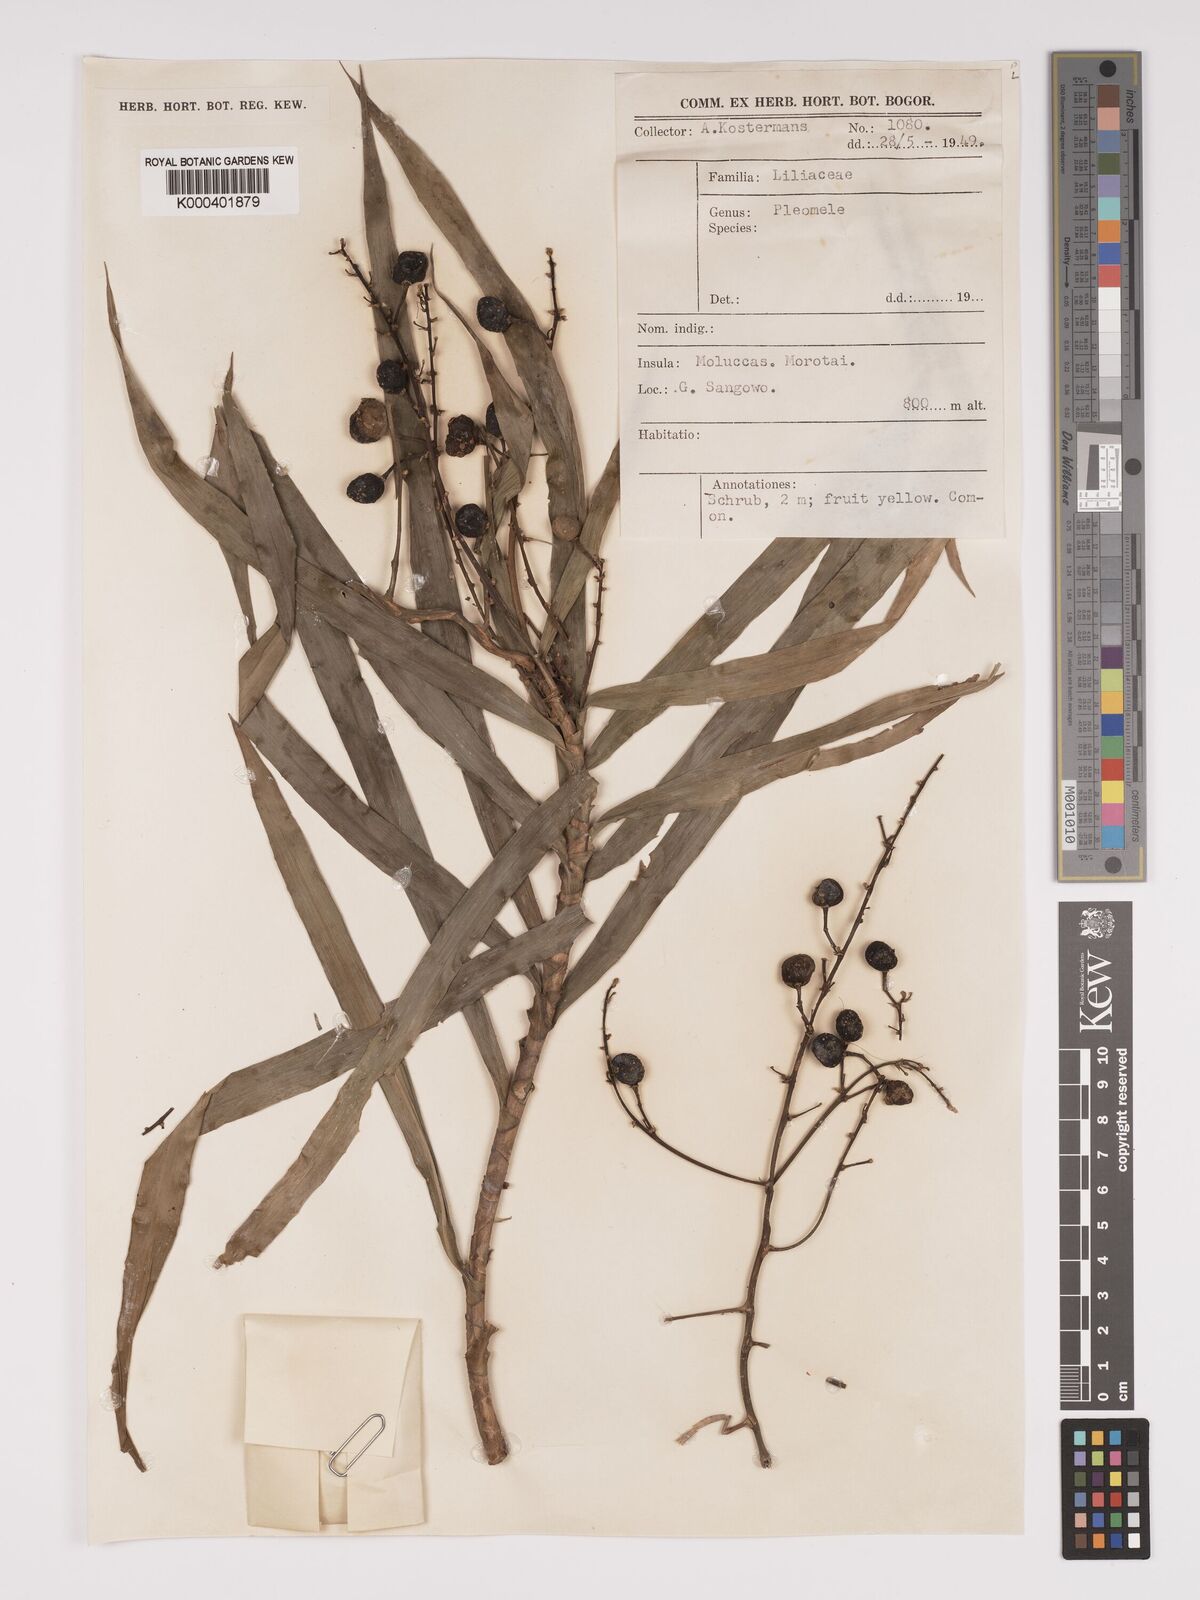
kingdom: Plantae
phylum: Tracheophyta
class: Liliopsida
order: Asparagales
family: Asparagaceae
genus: Dracaena
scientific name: Dracaena
